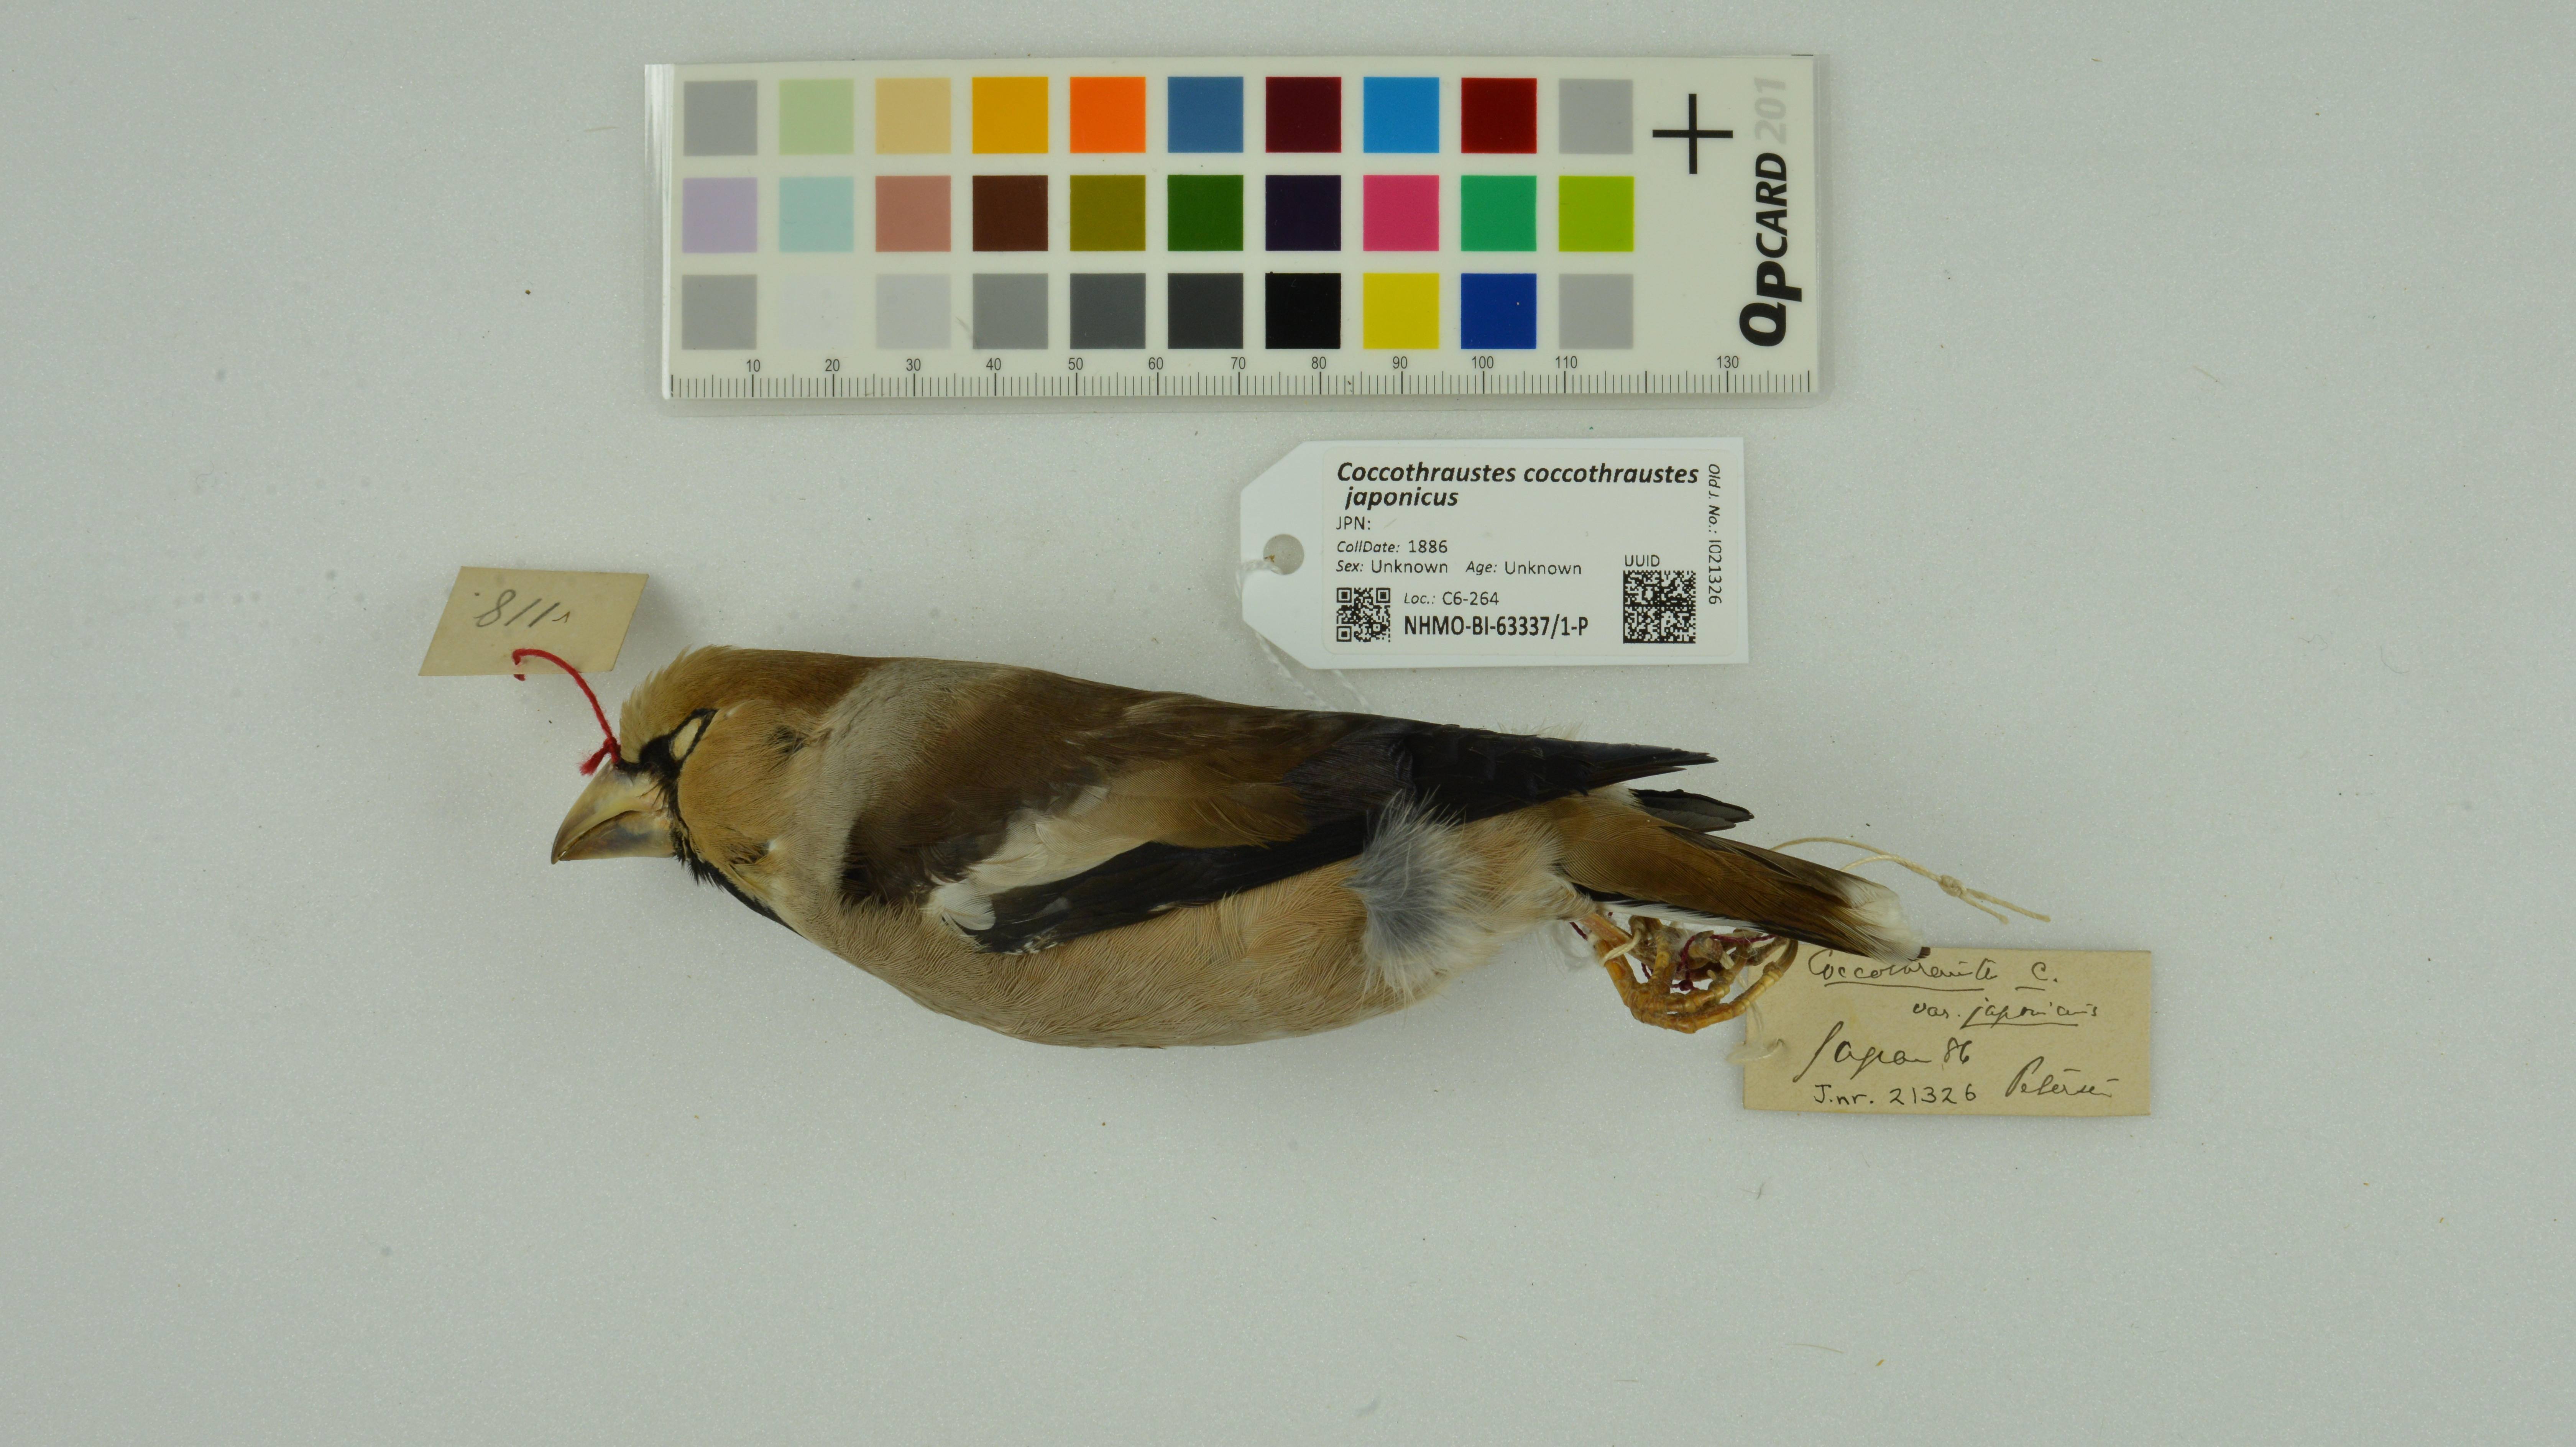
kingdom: Animalia
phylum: Chordata
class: Aves
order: Passeriformes
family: Fringillidae
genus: Coccothraustes
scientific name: Coccothraustes coccothraustes
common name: Hawfinch
